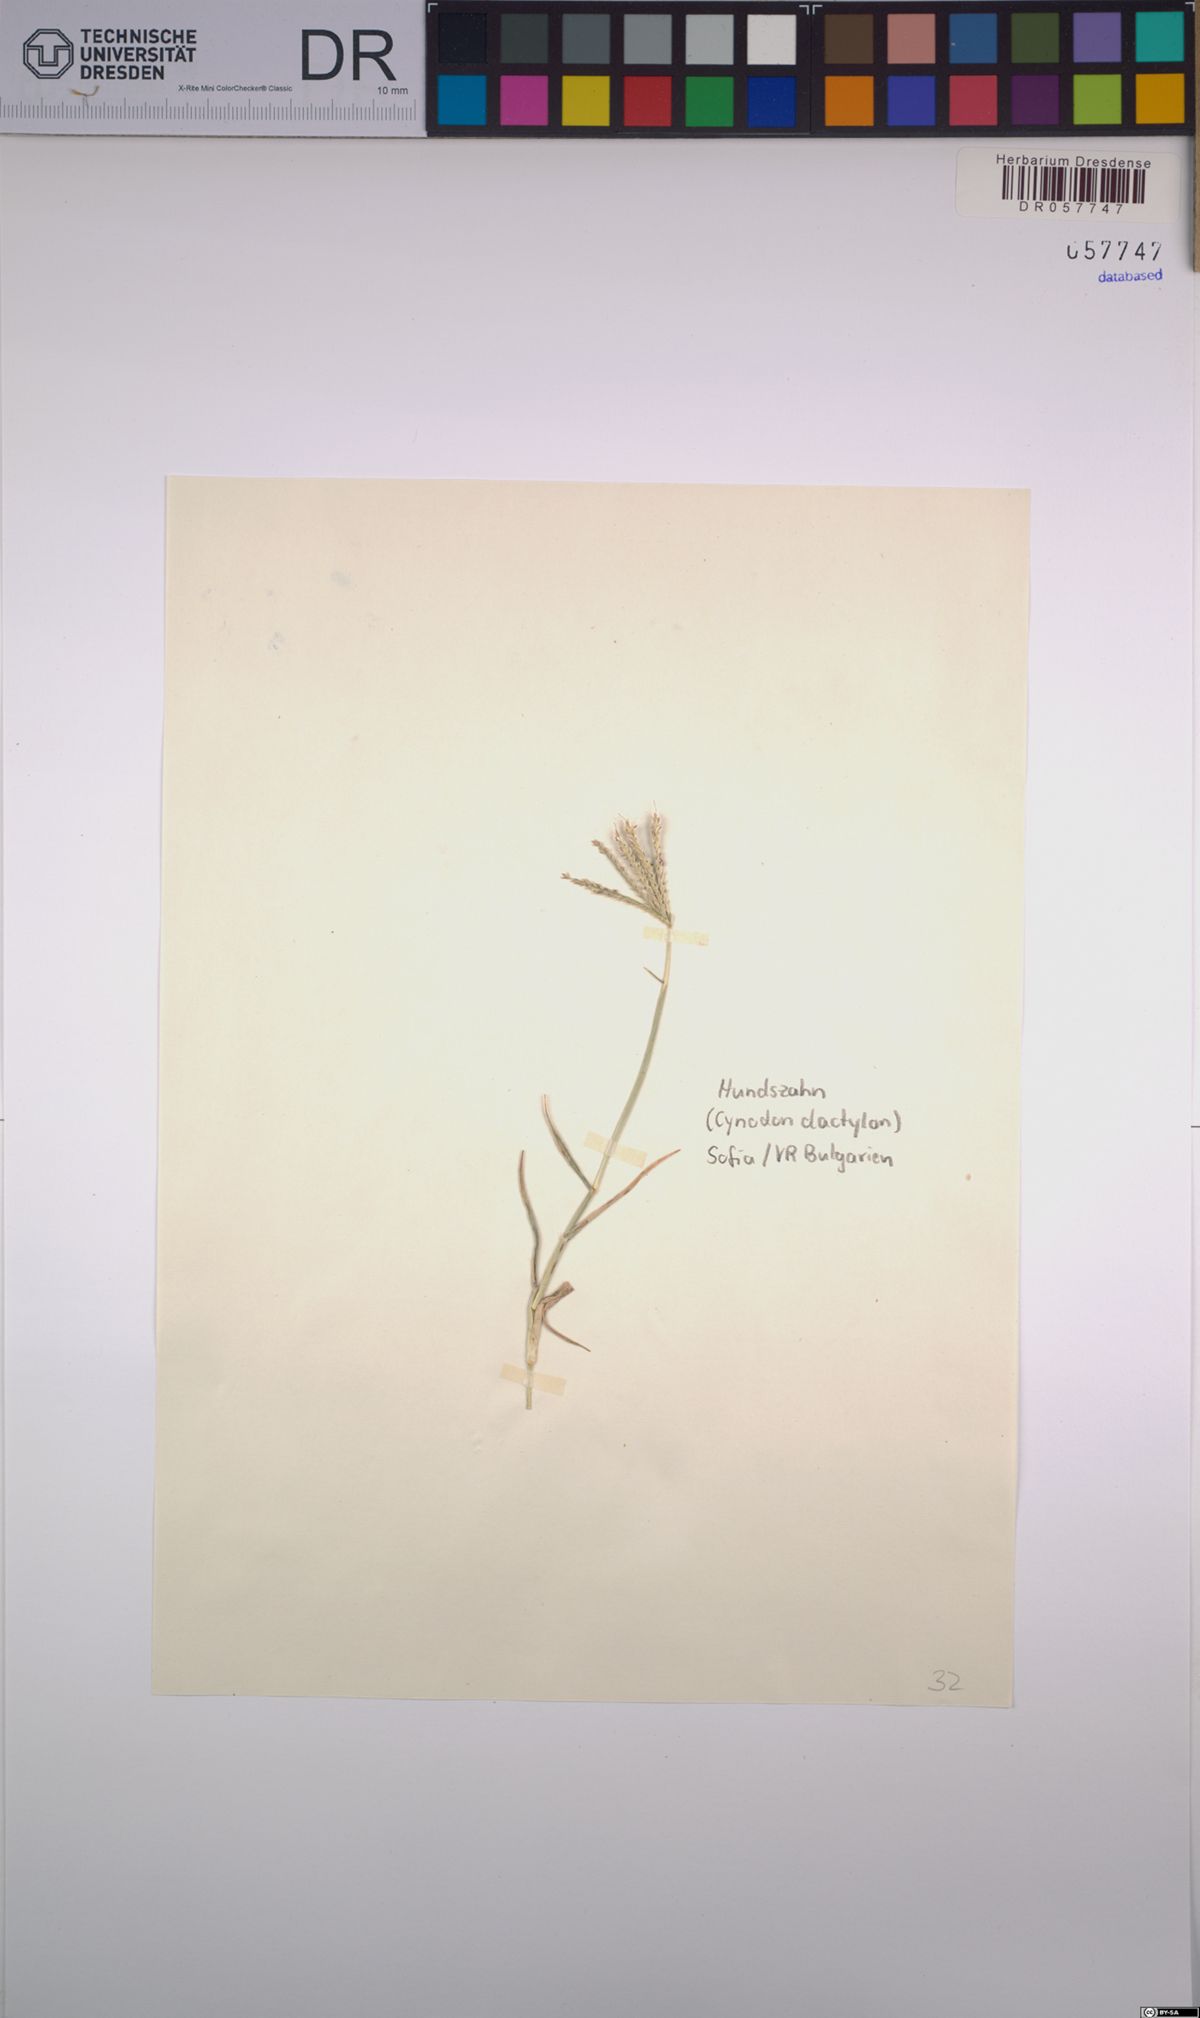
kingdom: Plantae
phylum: Tracheophyta
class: Liliopsida
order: Poales
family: Poaceae
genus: Cynodon
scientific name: Cynodon dactylon
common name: Bermuda grass
